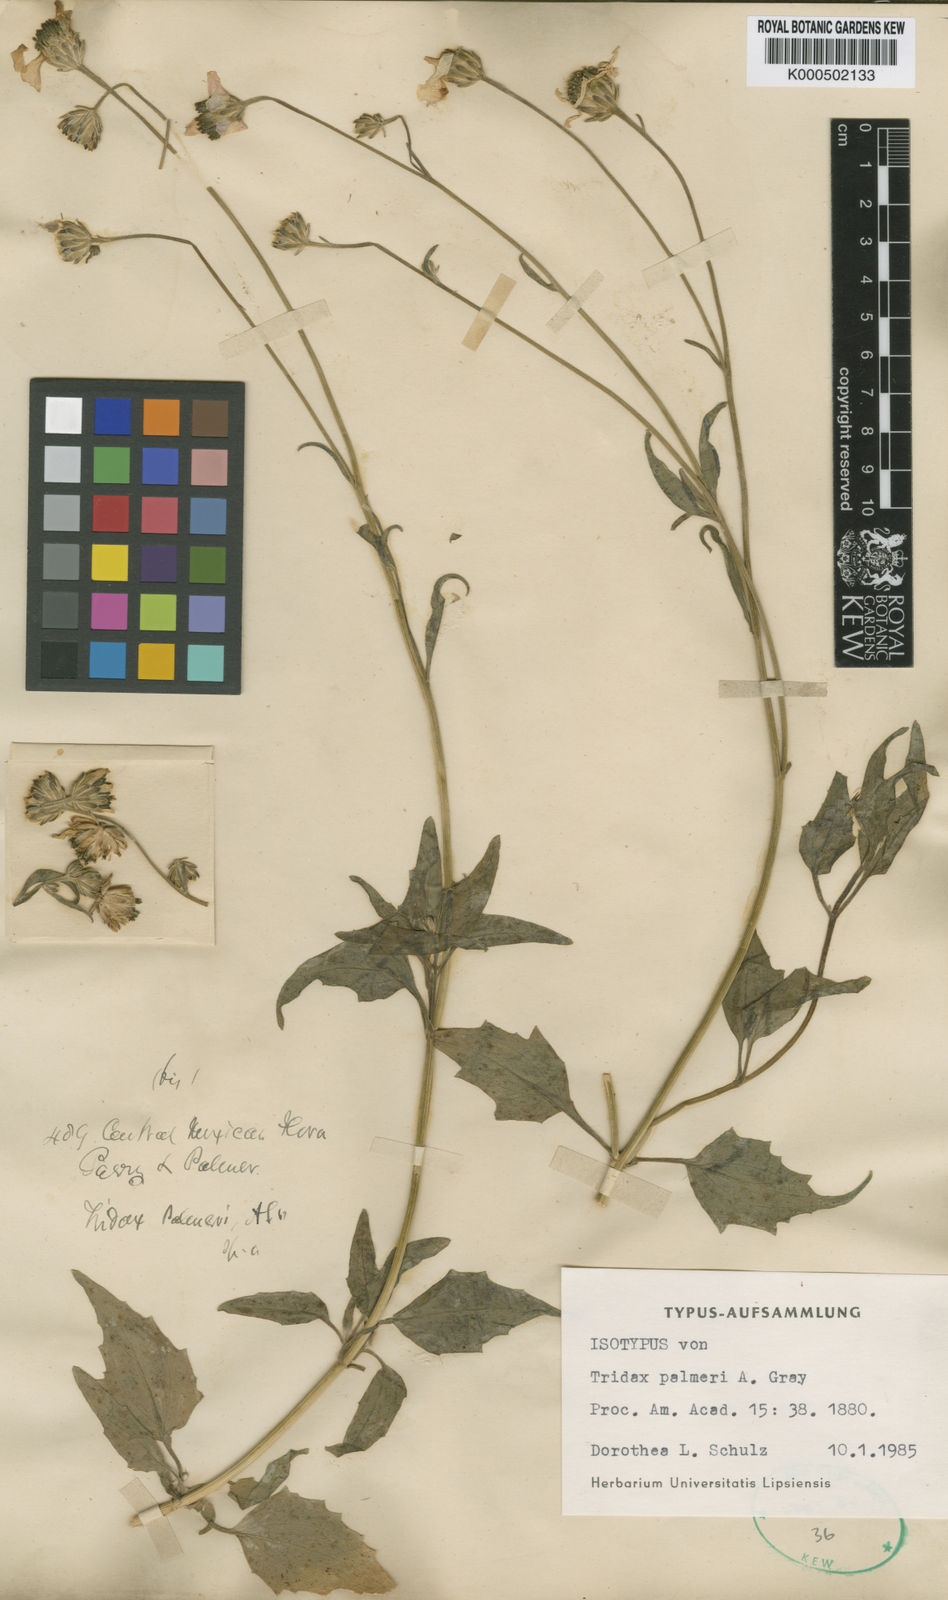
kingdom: Plantae
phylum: Tracheophyta
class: Magnoliopsida
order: Asterales
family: Asteraceae
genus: Tridax
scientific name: Tridax palmeri
